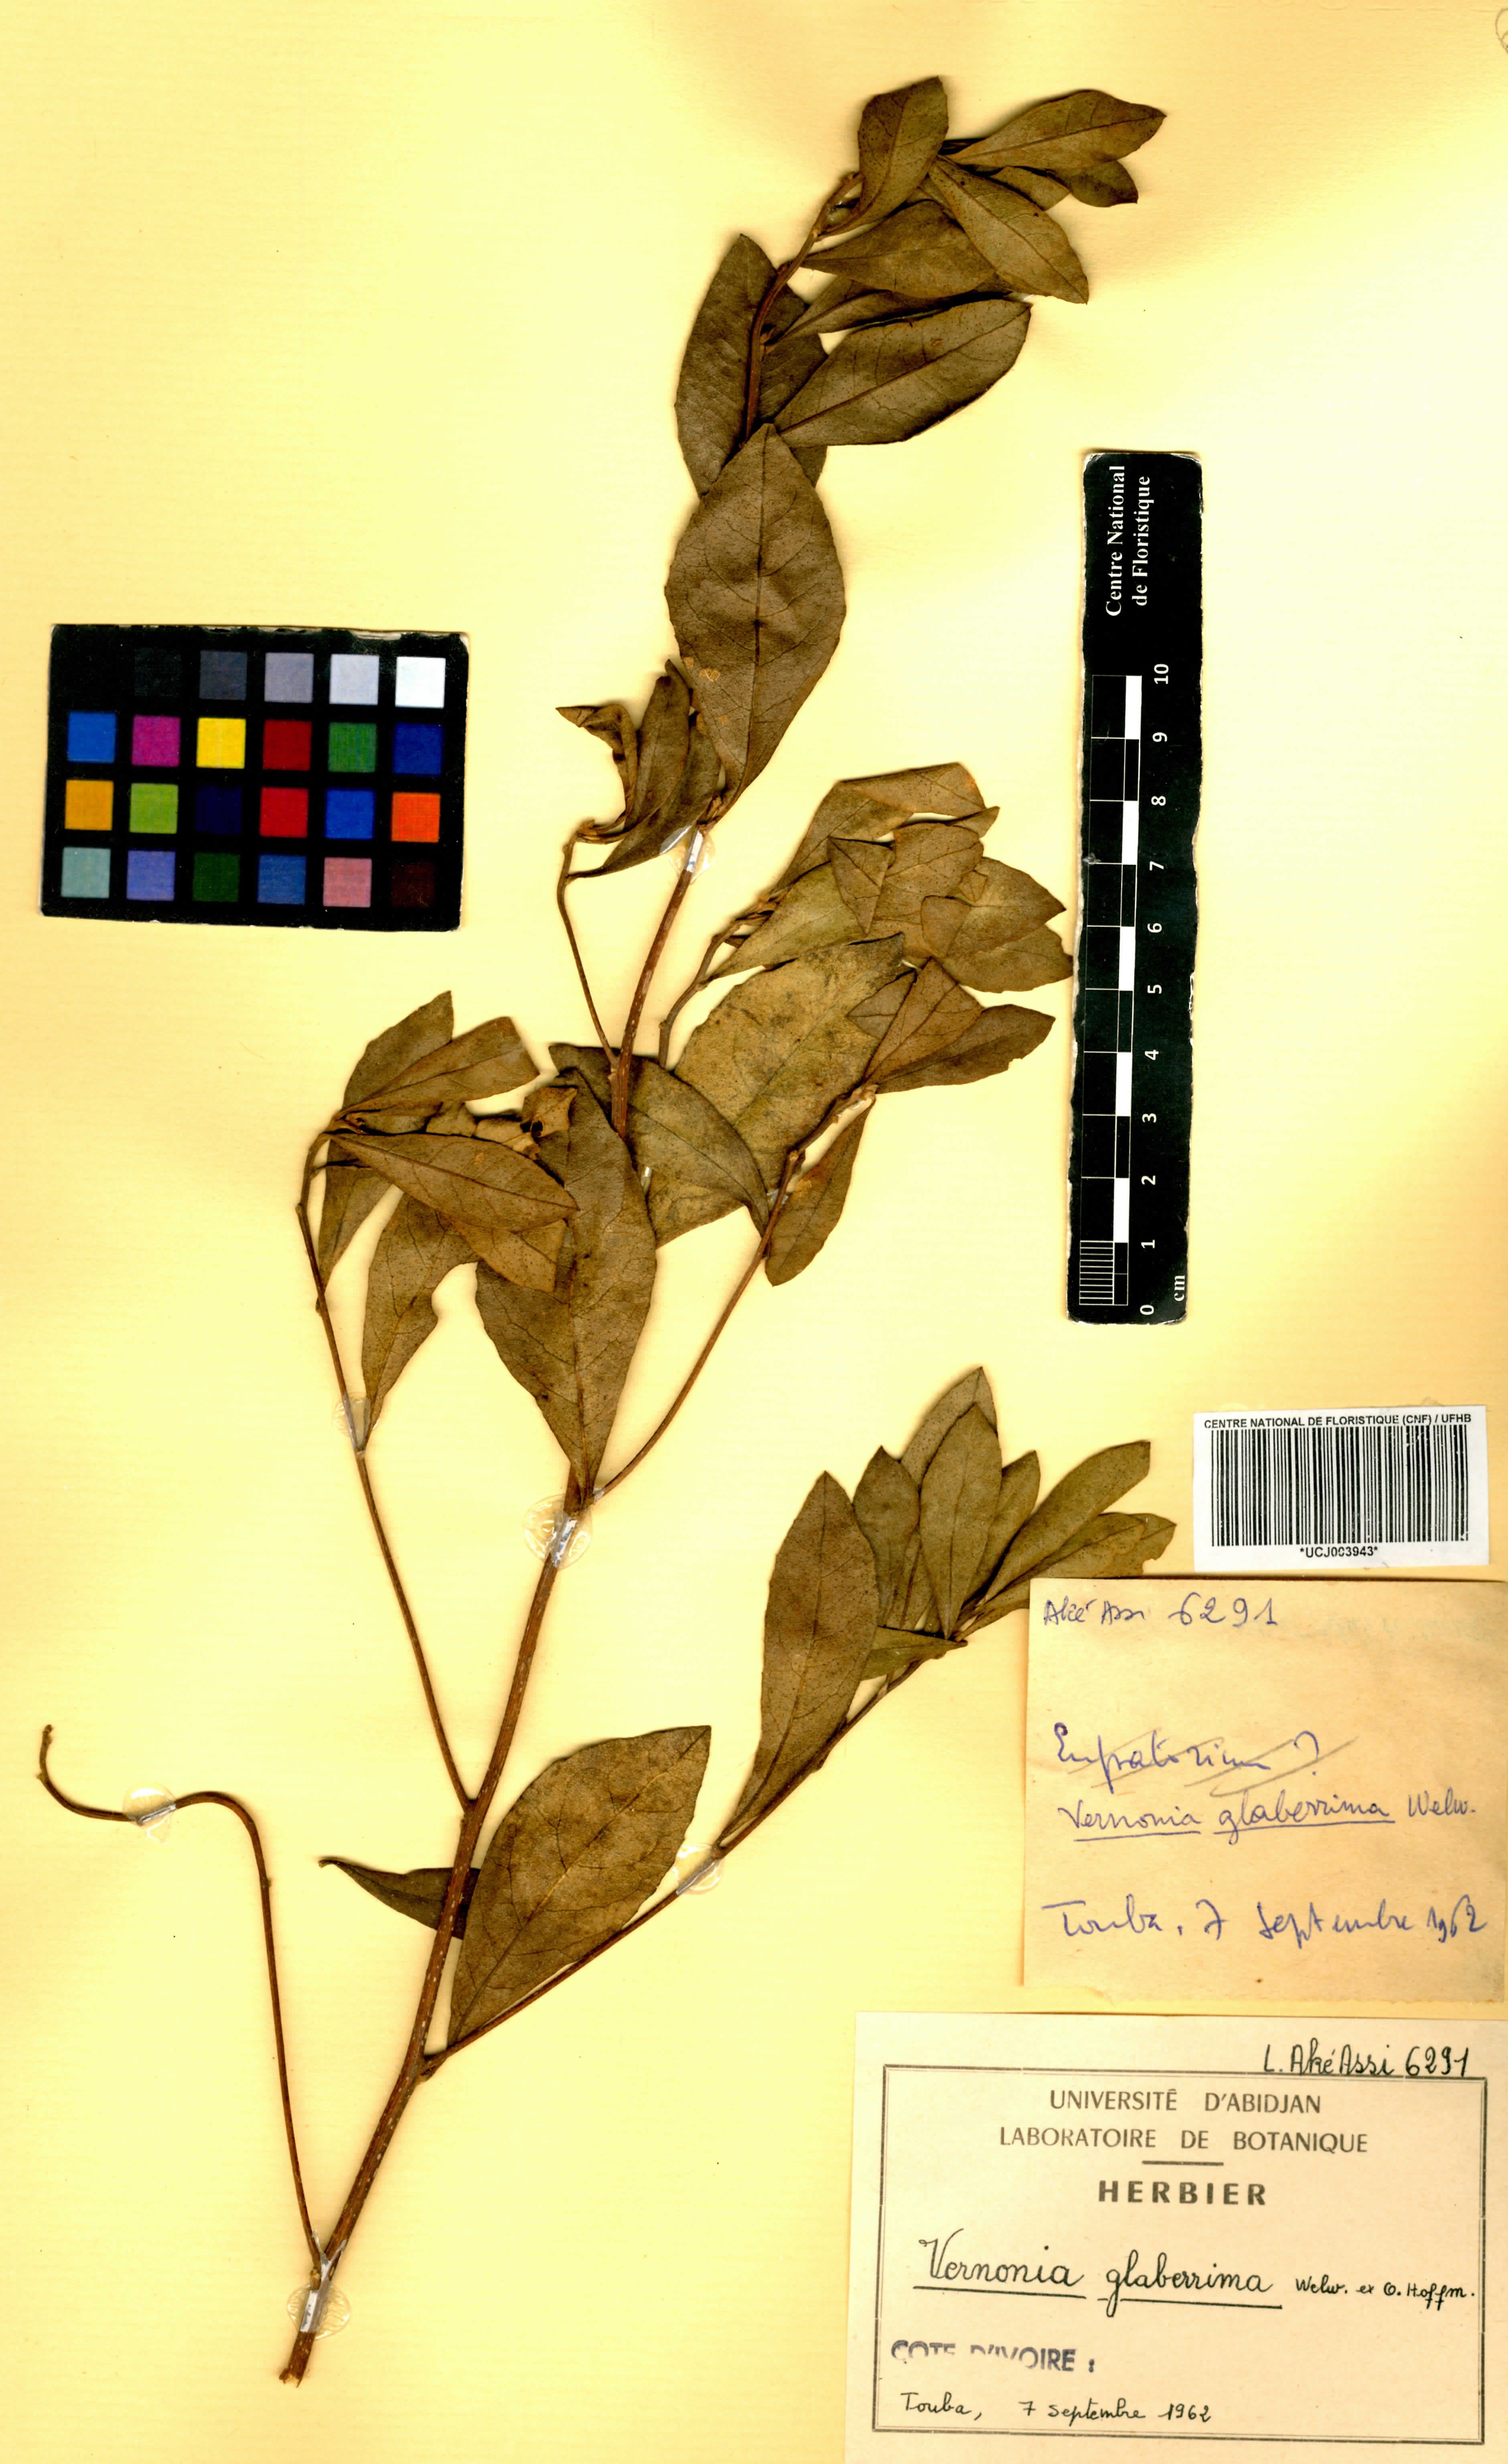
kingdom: Plantae
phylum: Tracheophyta
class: Magnoliopsida
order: Asterales
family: Asteraceae
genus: Gymnanthemum
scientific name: Gymnanthemum glaberrimum
